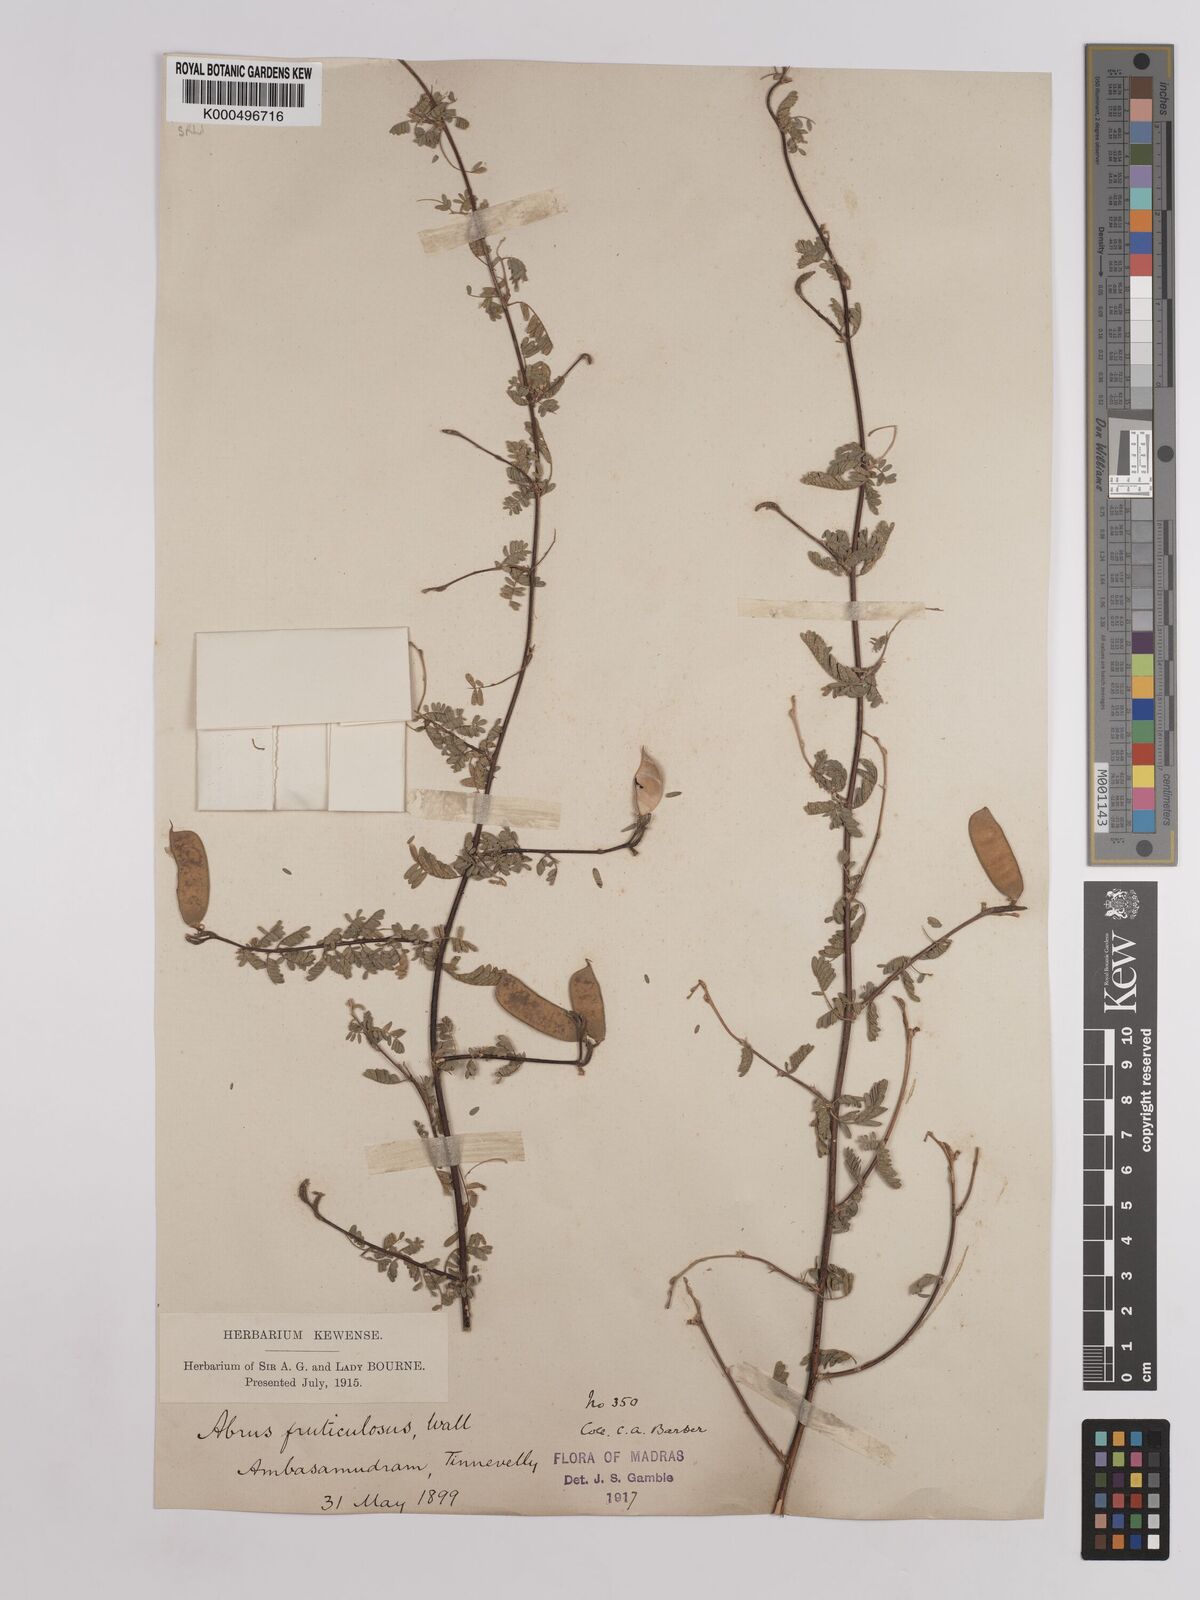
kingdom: Plantae
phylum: Tracheophyta
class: Magnoliopsida
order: Fabales
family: Fabaceae
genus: Abrus
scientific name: Abrus fruticulosus
